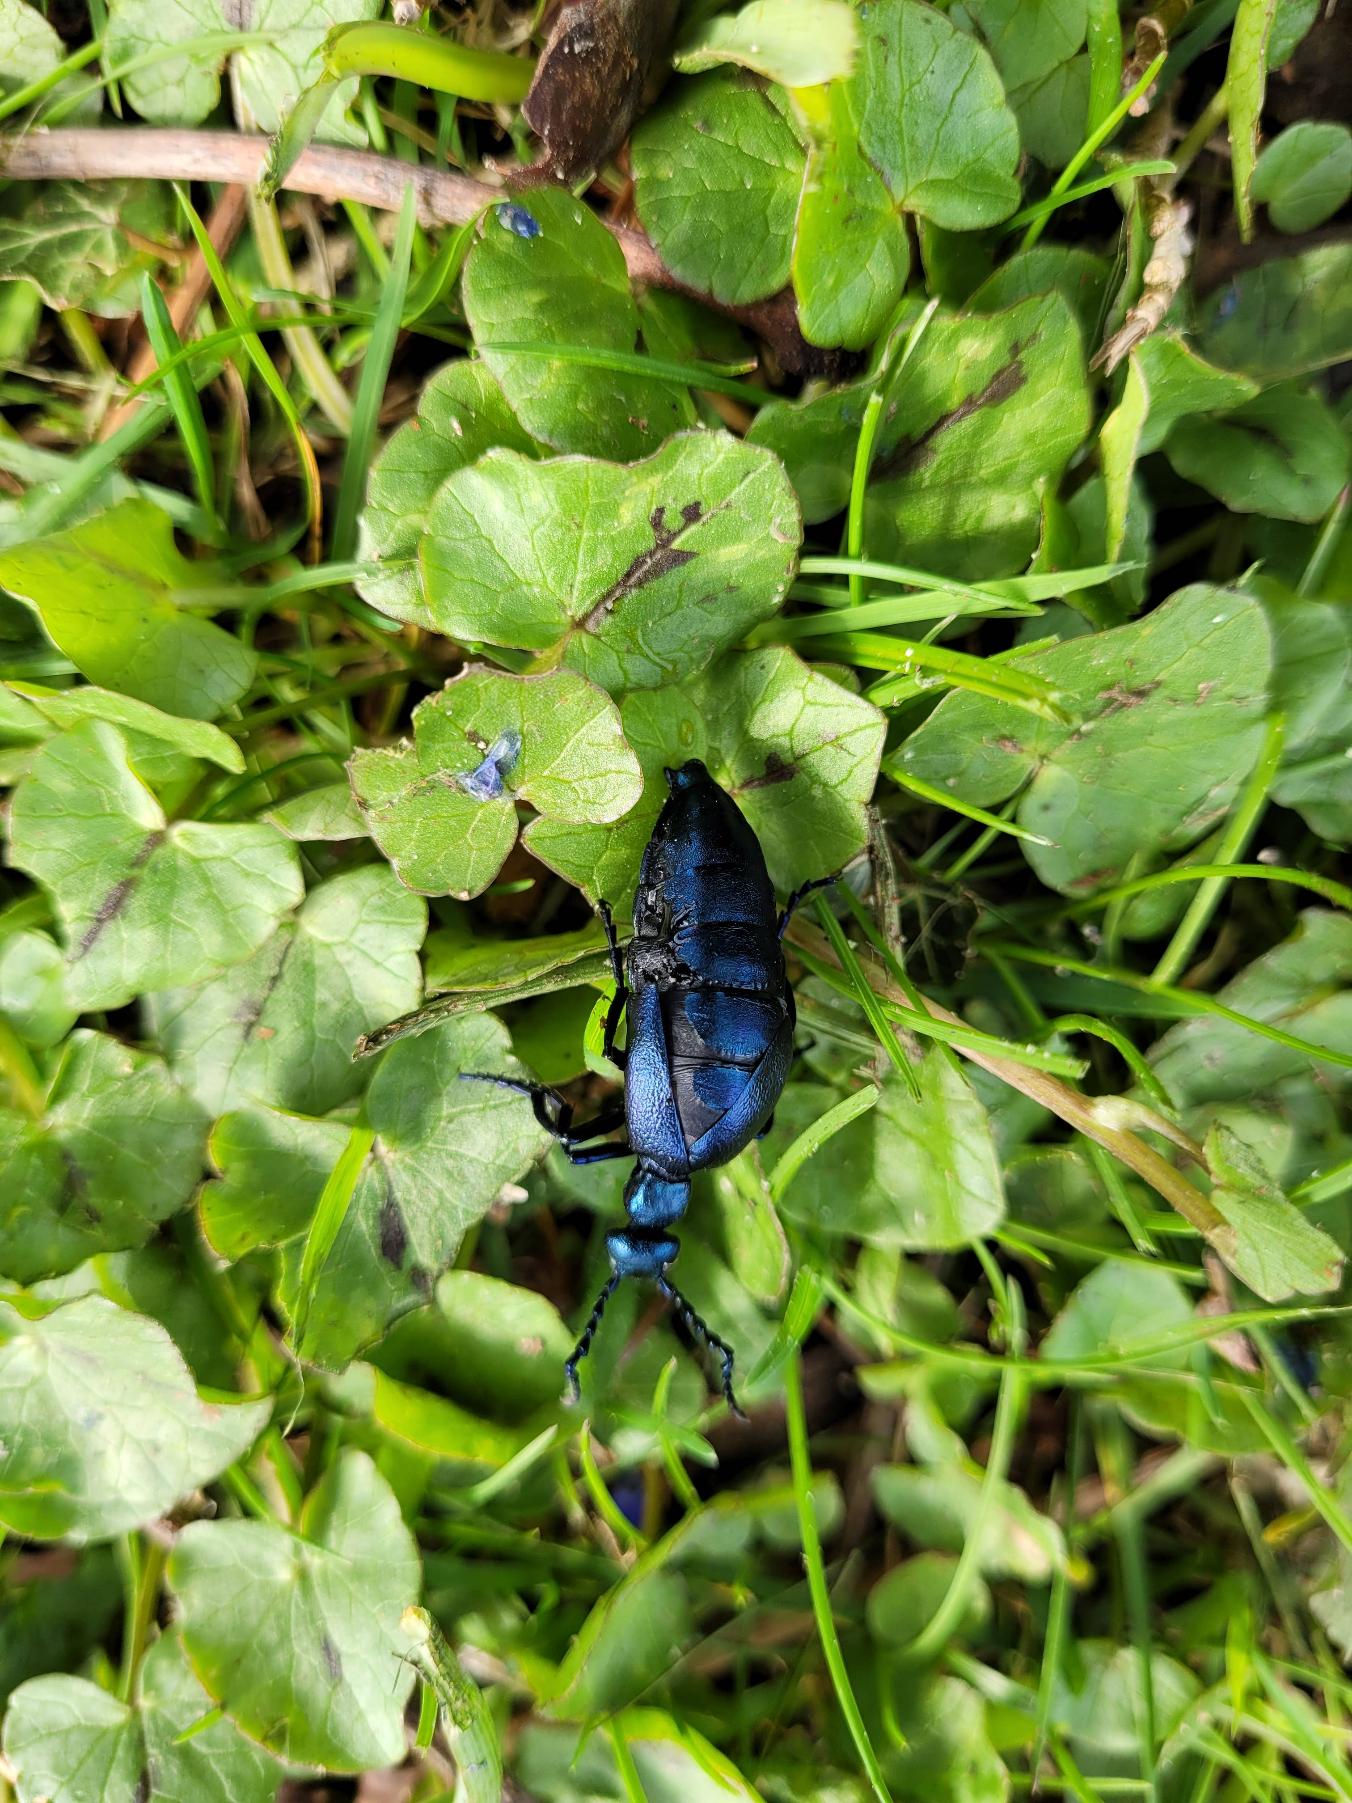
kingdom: Animalia
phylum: Arthropoda
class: Insecta
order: Coleoptera
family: Meloidae
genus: Meloe
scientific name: Meloe violaceus
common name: Blå oliebille
